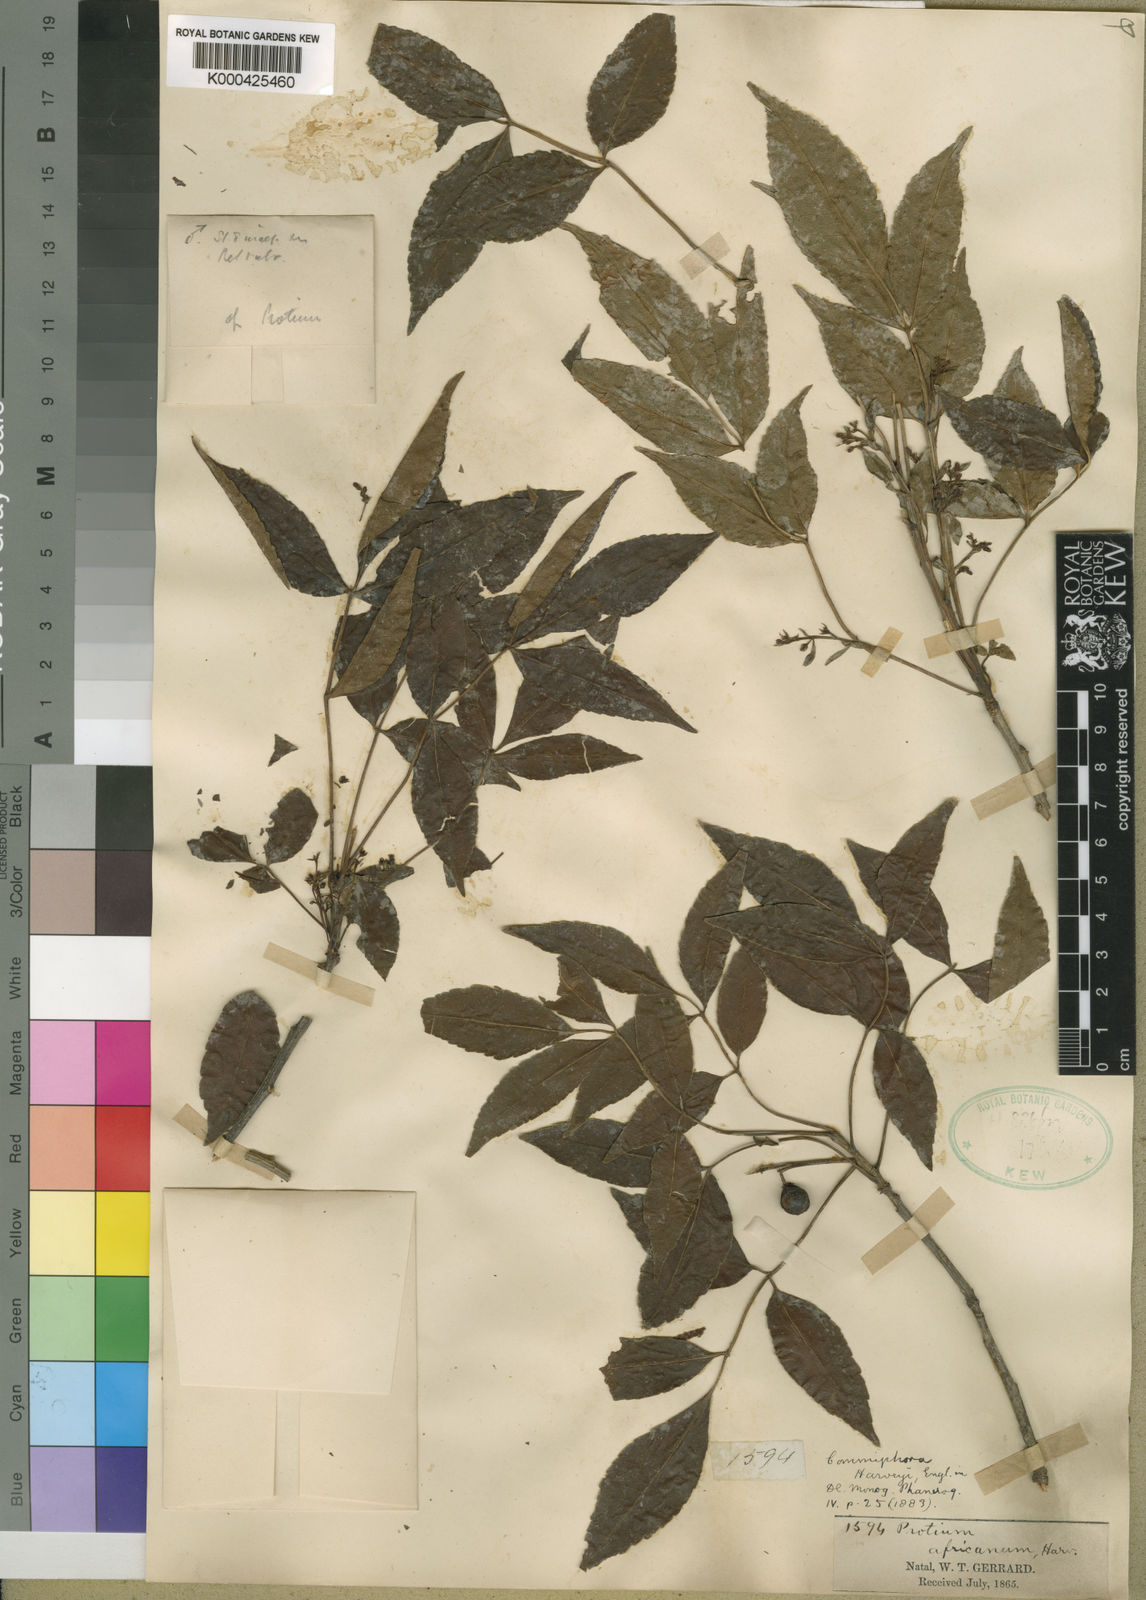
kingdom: Plantae
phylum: Tracheophyta
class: Magnoliopsida
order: Sapindales
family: Burseraceae
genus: Commiphora
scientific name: Commiphora harveyi
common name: Copper-stem corkwood
